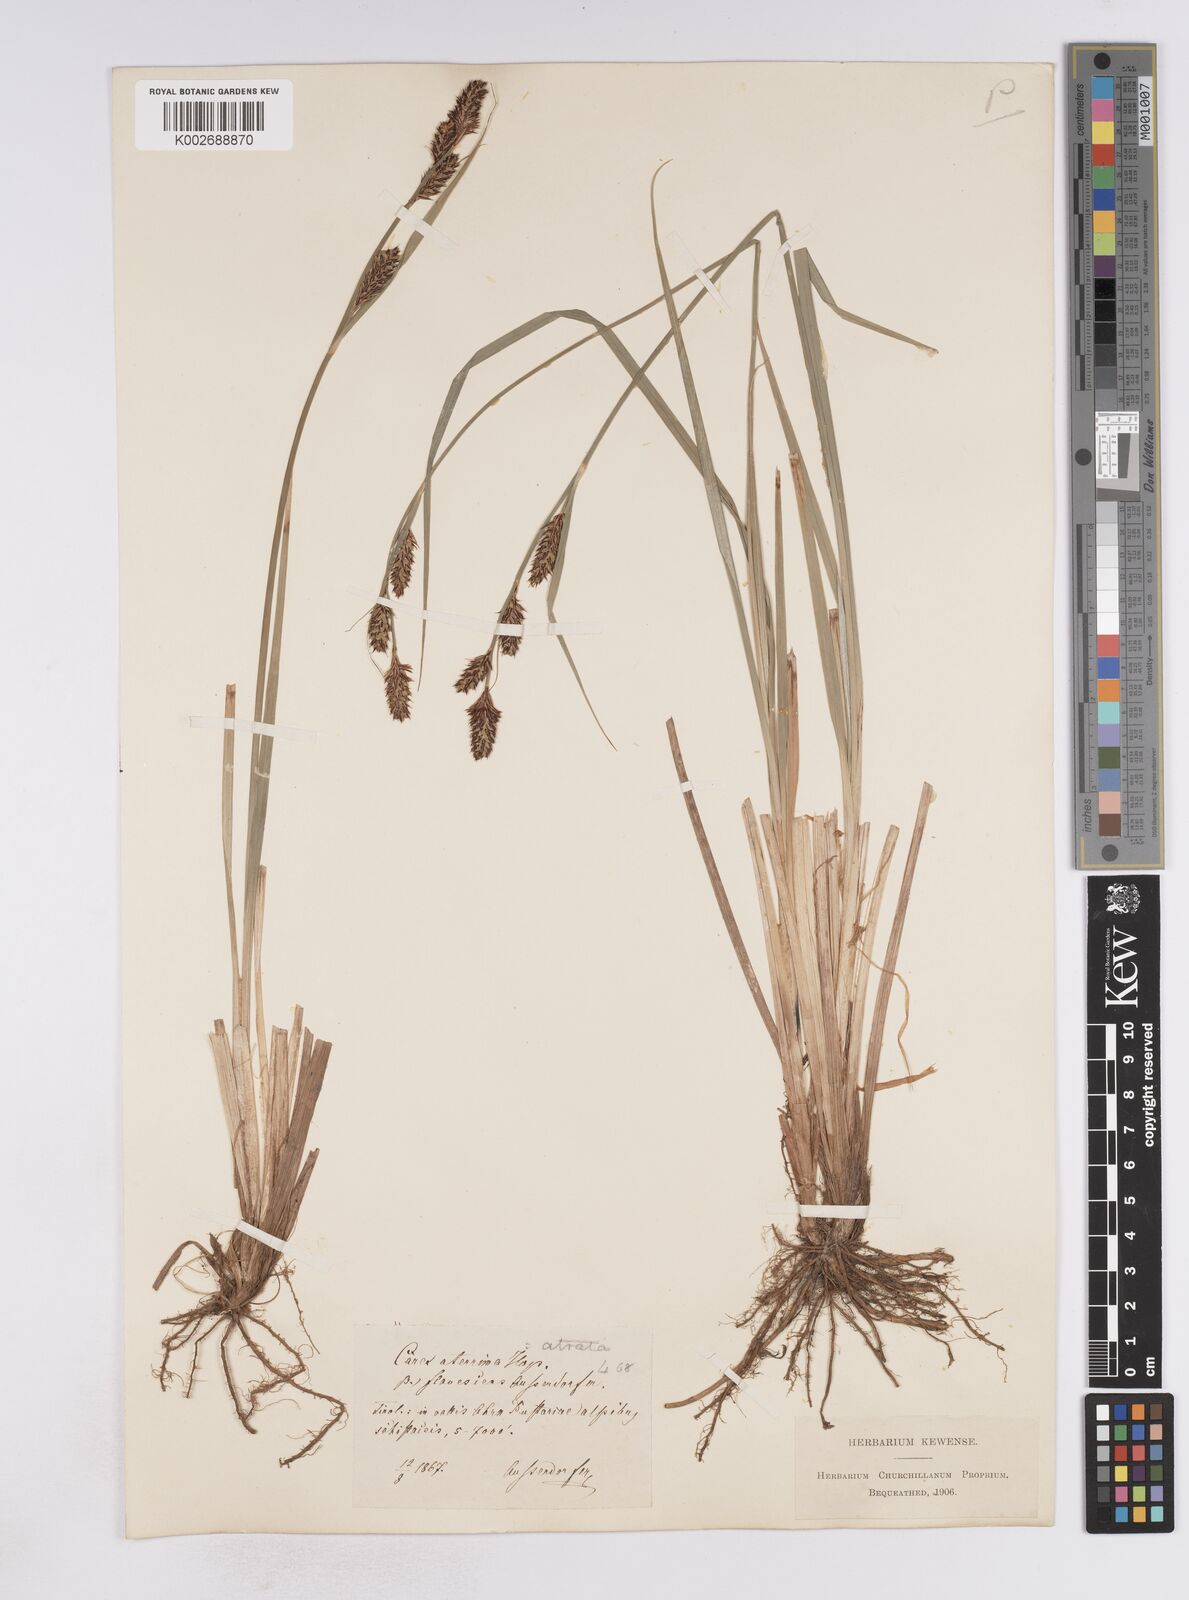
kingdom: Plantae
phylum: Tracheophyta
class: Liliopsida
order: Poales
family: Cyperaceae
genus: Carex
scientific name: Carex buxbaumii
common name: Club sedge
